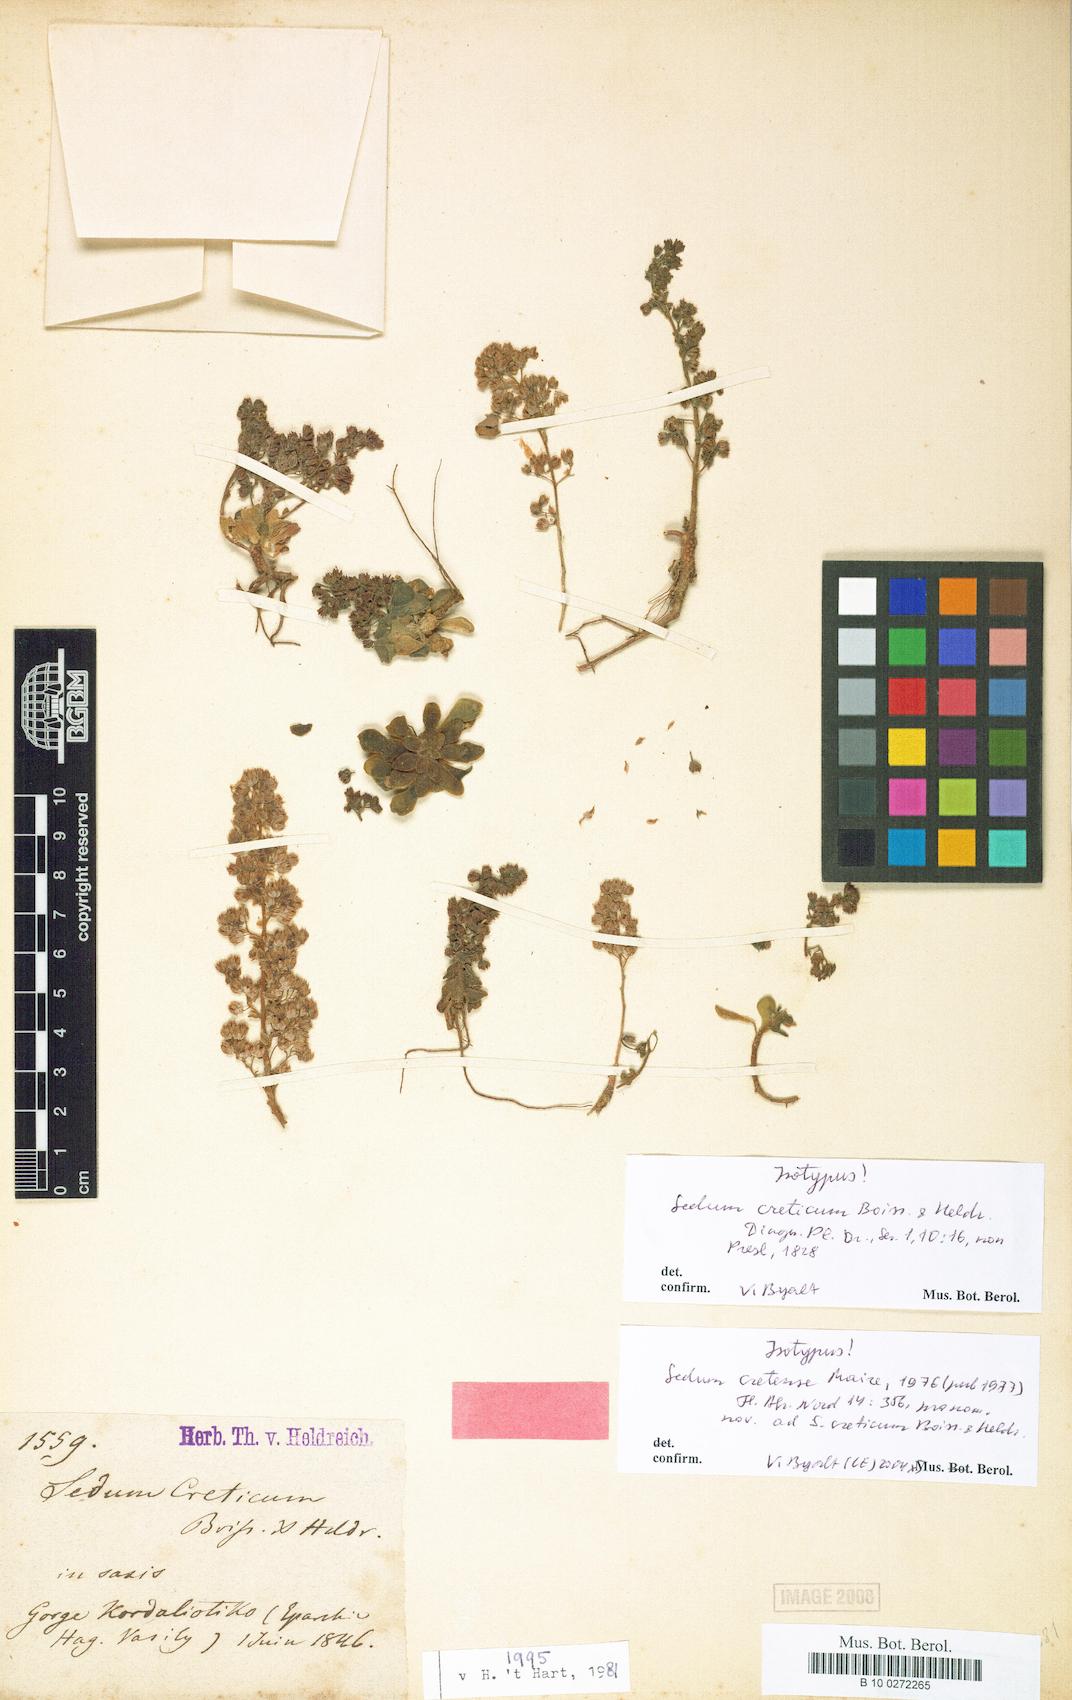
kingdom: Plantae
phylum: Tracheophyta
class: Magnoliopsida
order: Saxifragales
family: Crassulaceae
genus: Sedum
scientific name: Sedum creticum
